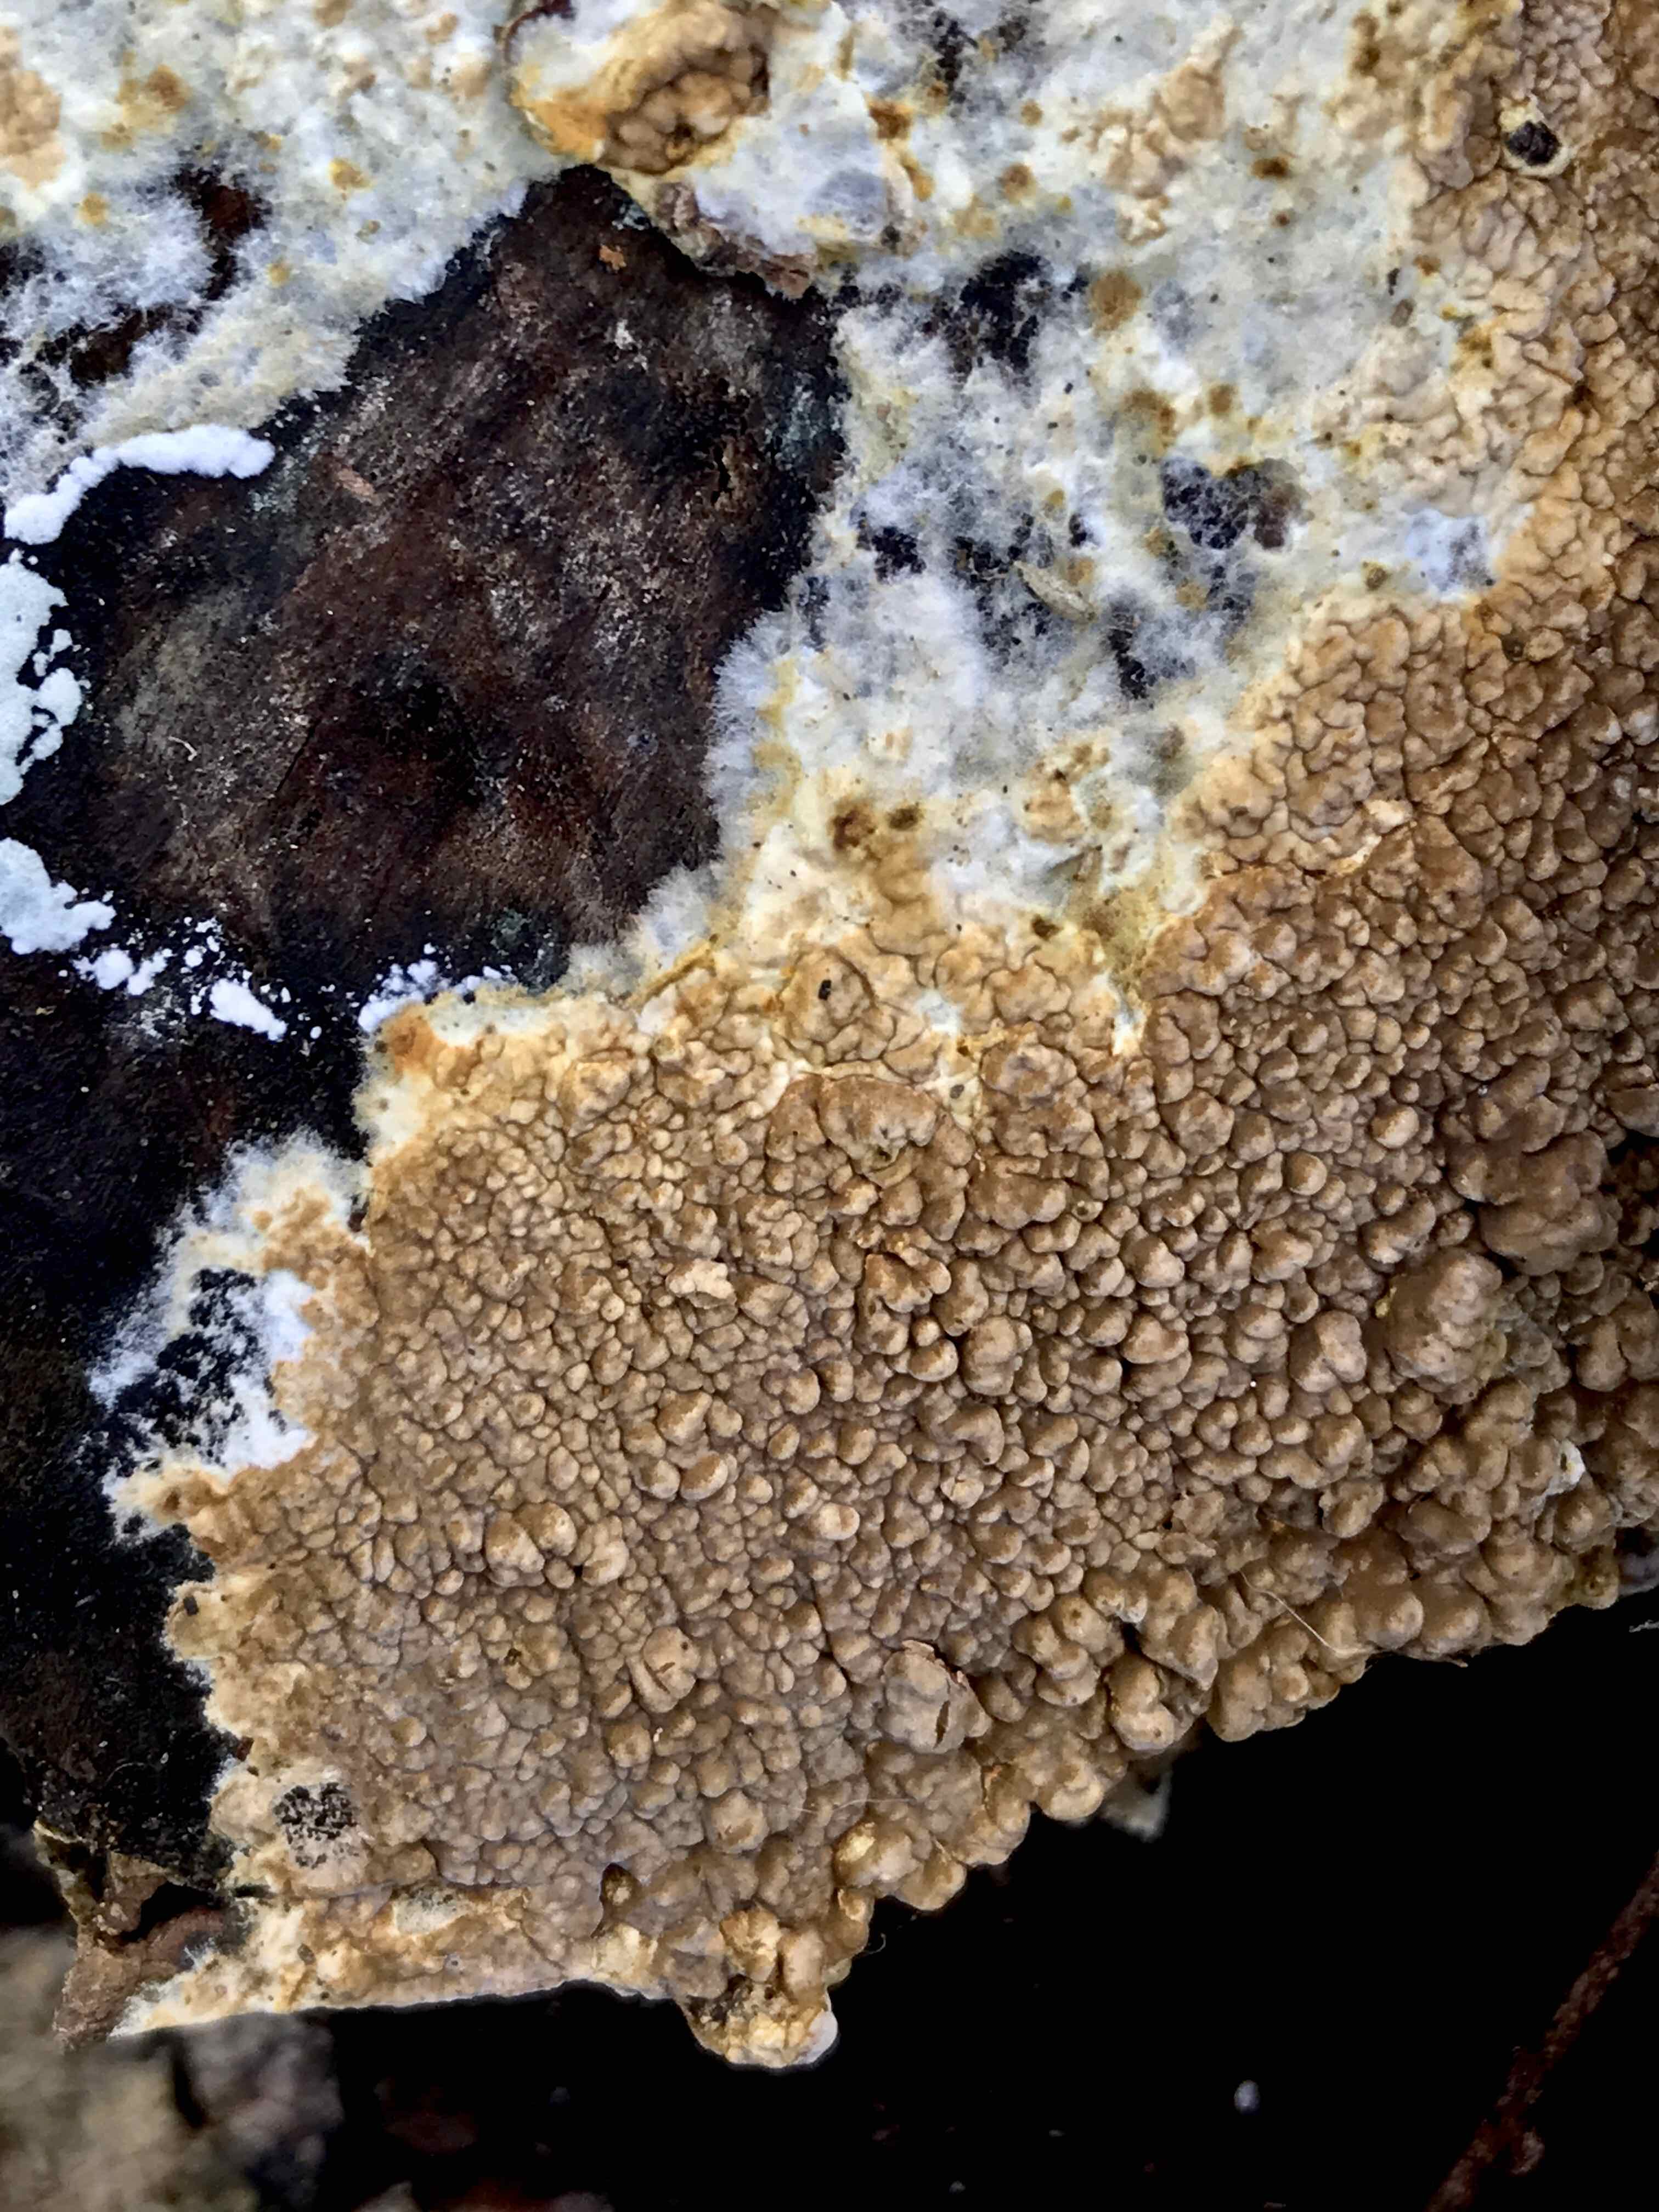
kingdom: Fungi
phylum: Basidiomycota
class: Agaricomycetes
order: Boletales
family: Coniophoraceae
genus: Coniophora
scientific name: Coniophora puteana
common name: gul tømmersvamp
